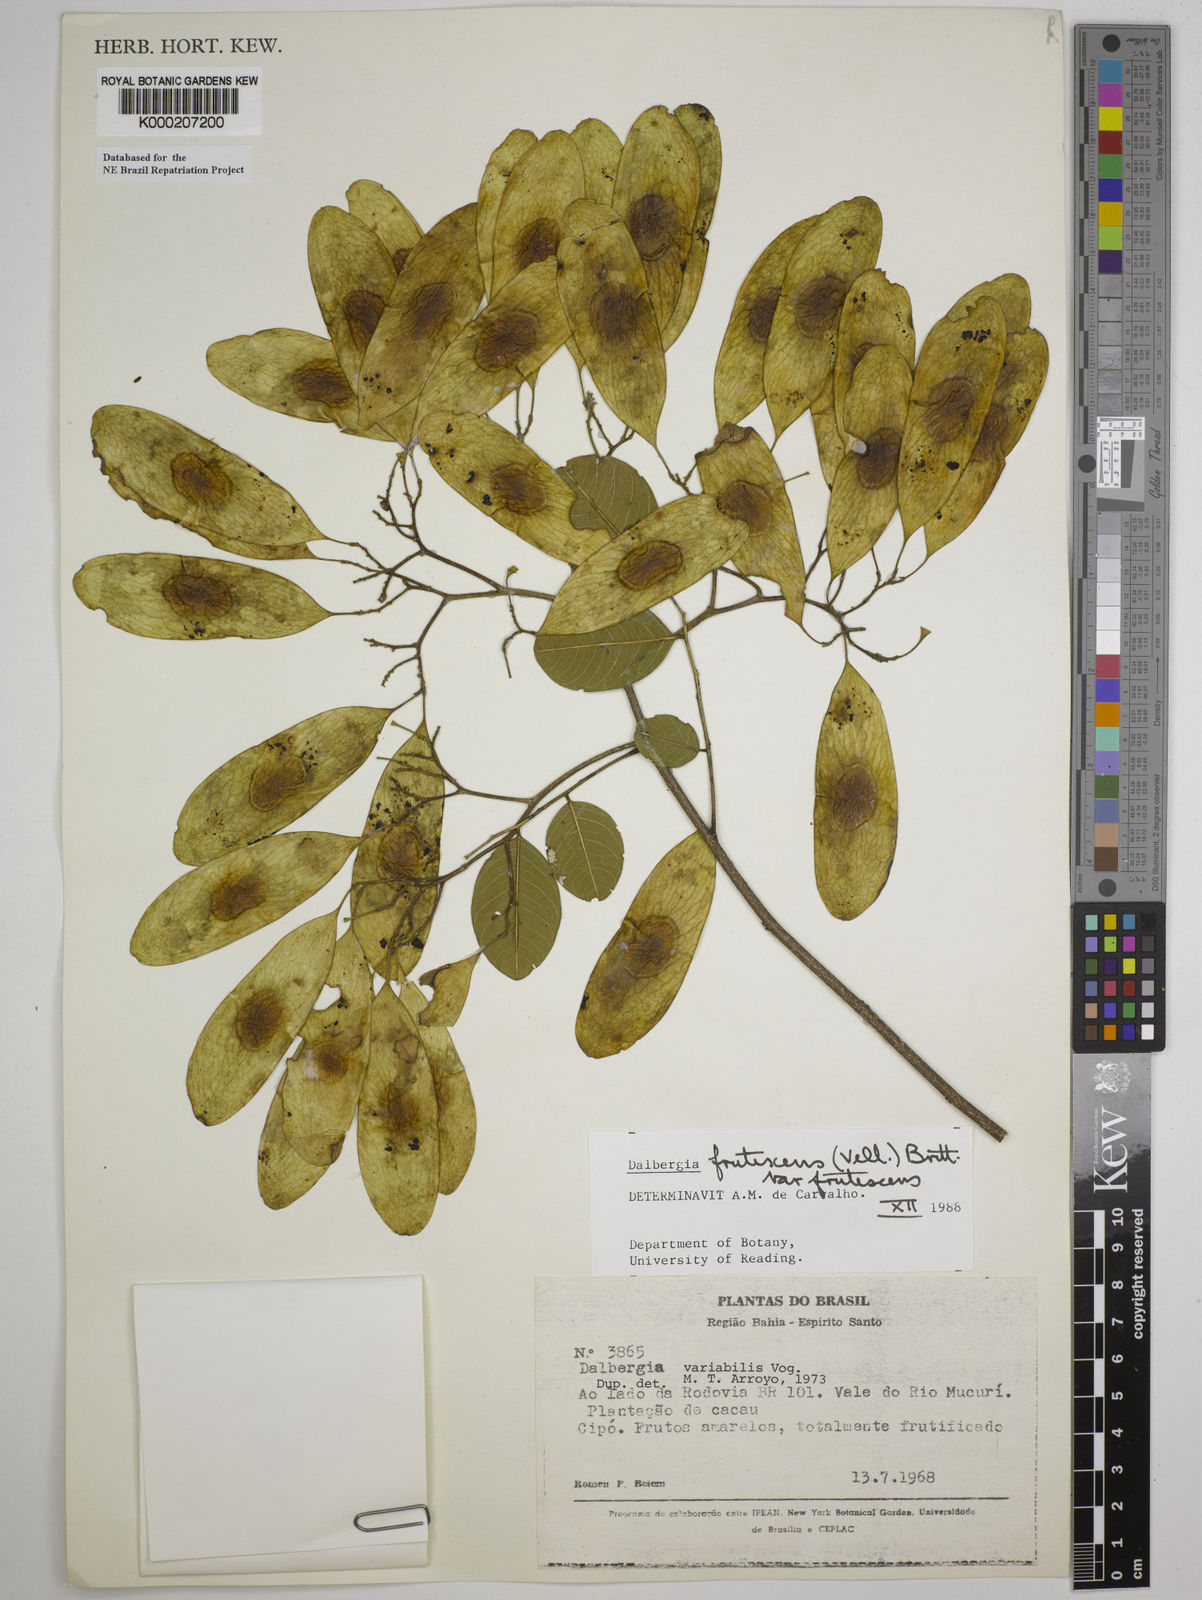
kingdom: Plantae
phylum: Tracheophyta
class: Magnoliopsida
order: Fabales
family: Fabaceae
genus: Dalbergia
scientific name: Dalbergia frutescens
